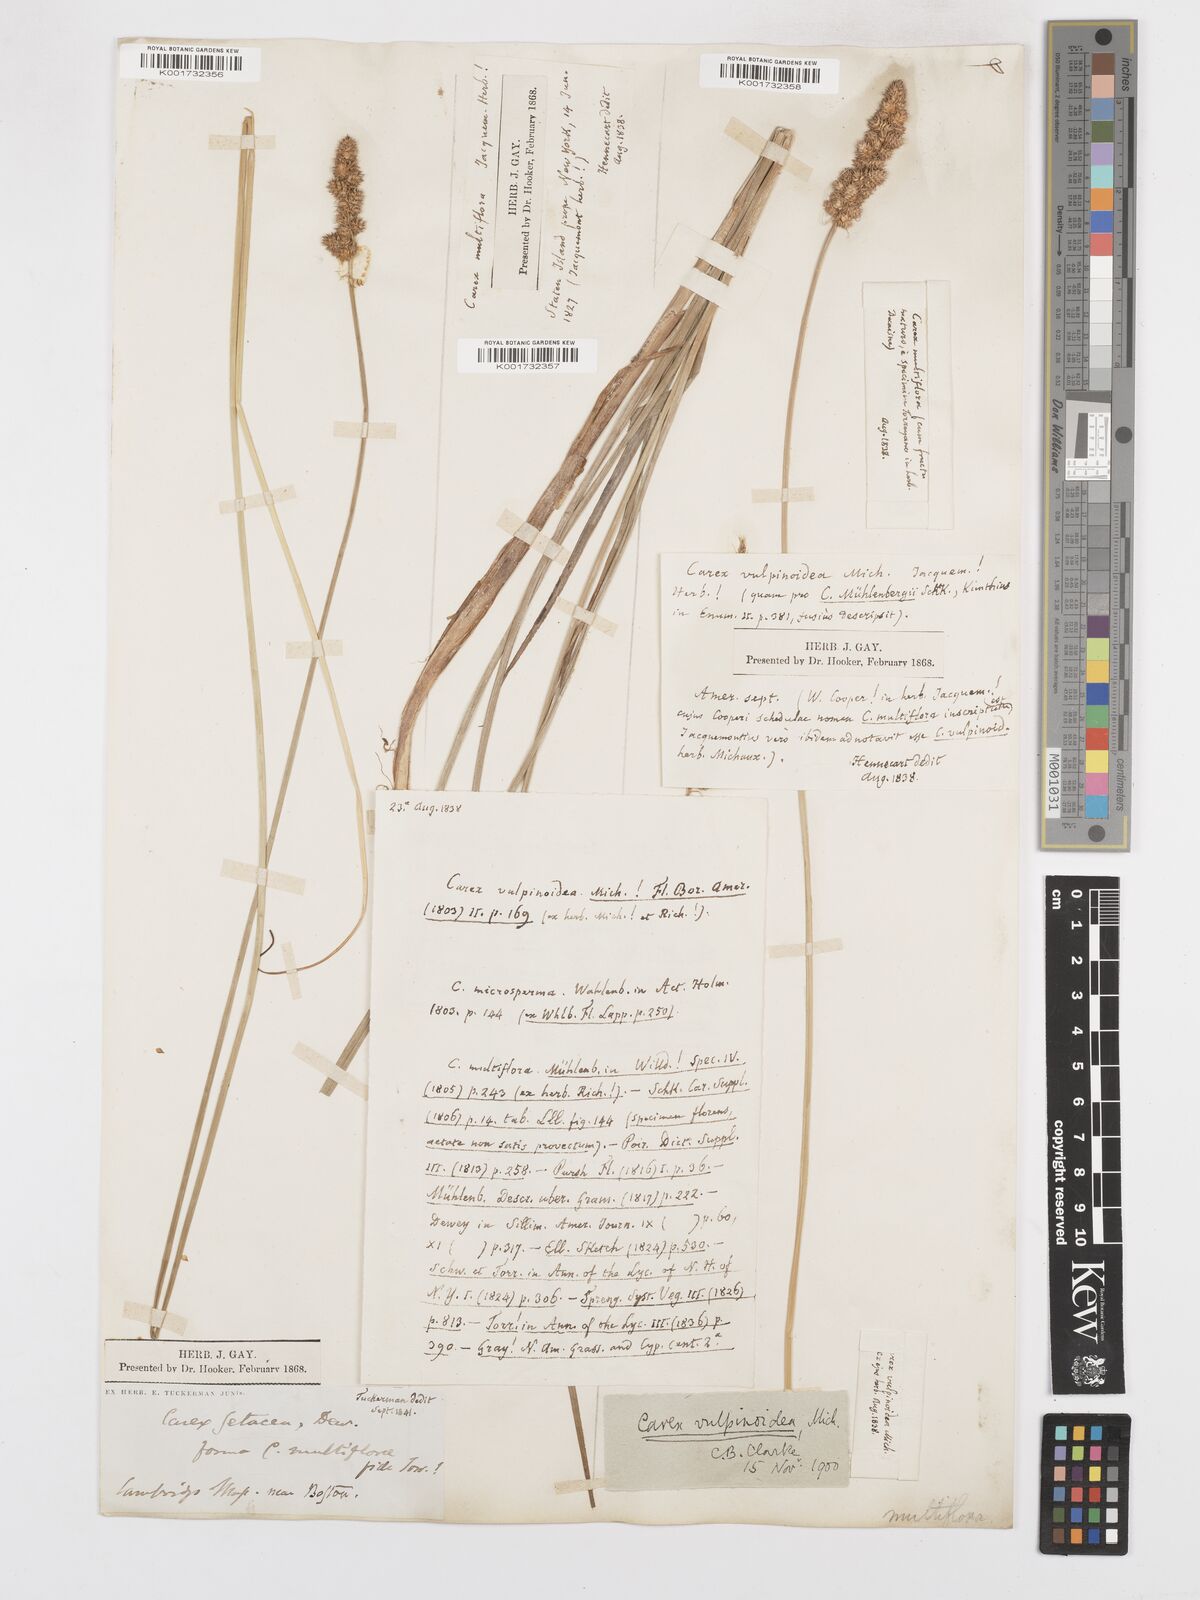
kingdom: Plantae
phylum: Tracheophyta
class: Liliopsida
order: Poales
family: Cyperaceae
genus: Carex
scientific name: Carex vulpinoidea
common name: American fox-sedge
